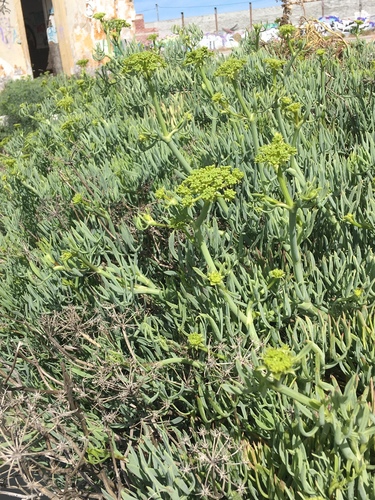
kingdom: Plantae
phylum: Tracheophyta
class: Magnoliopsida
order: Apiales
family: Apiaceae
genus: Crithmum
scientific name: Crithmum maritimum
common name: Rock samphire
